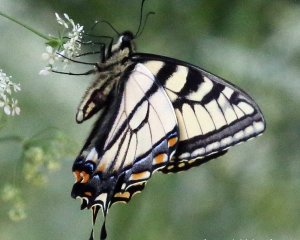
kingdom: Animalia
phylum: Arthropoda
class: Insecta
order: Lepidoptera
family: Papilionidae
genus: Pterourus
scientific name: Pterourus canadensis
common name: Canadian Tiger Swallowtail
